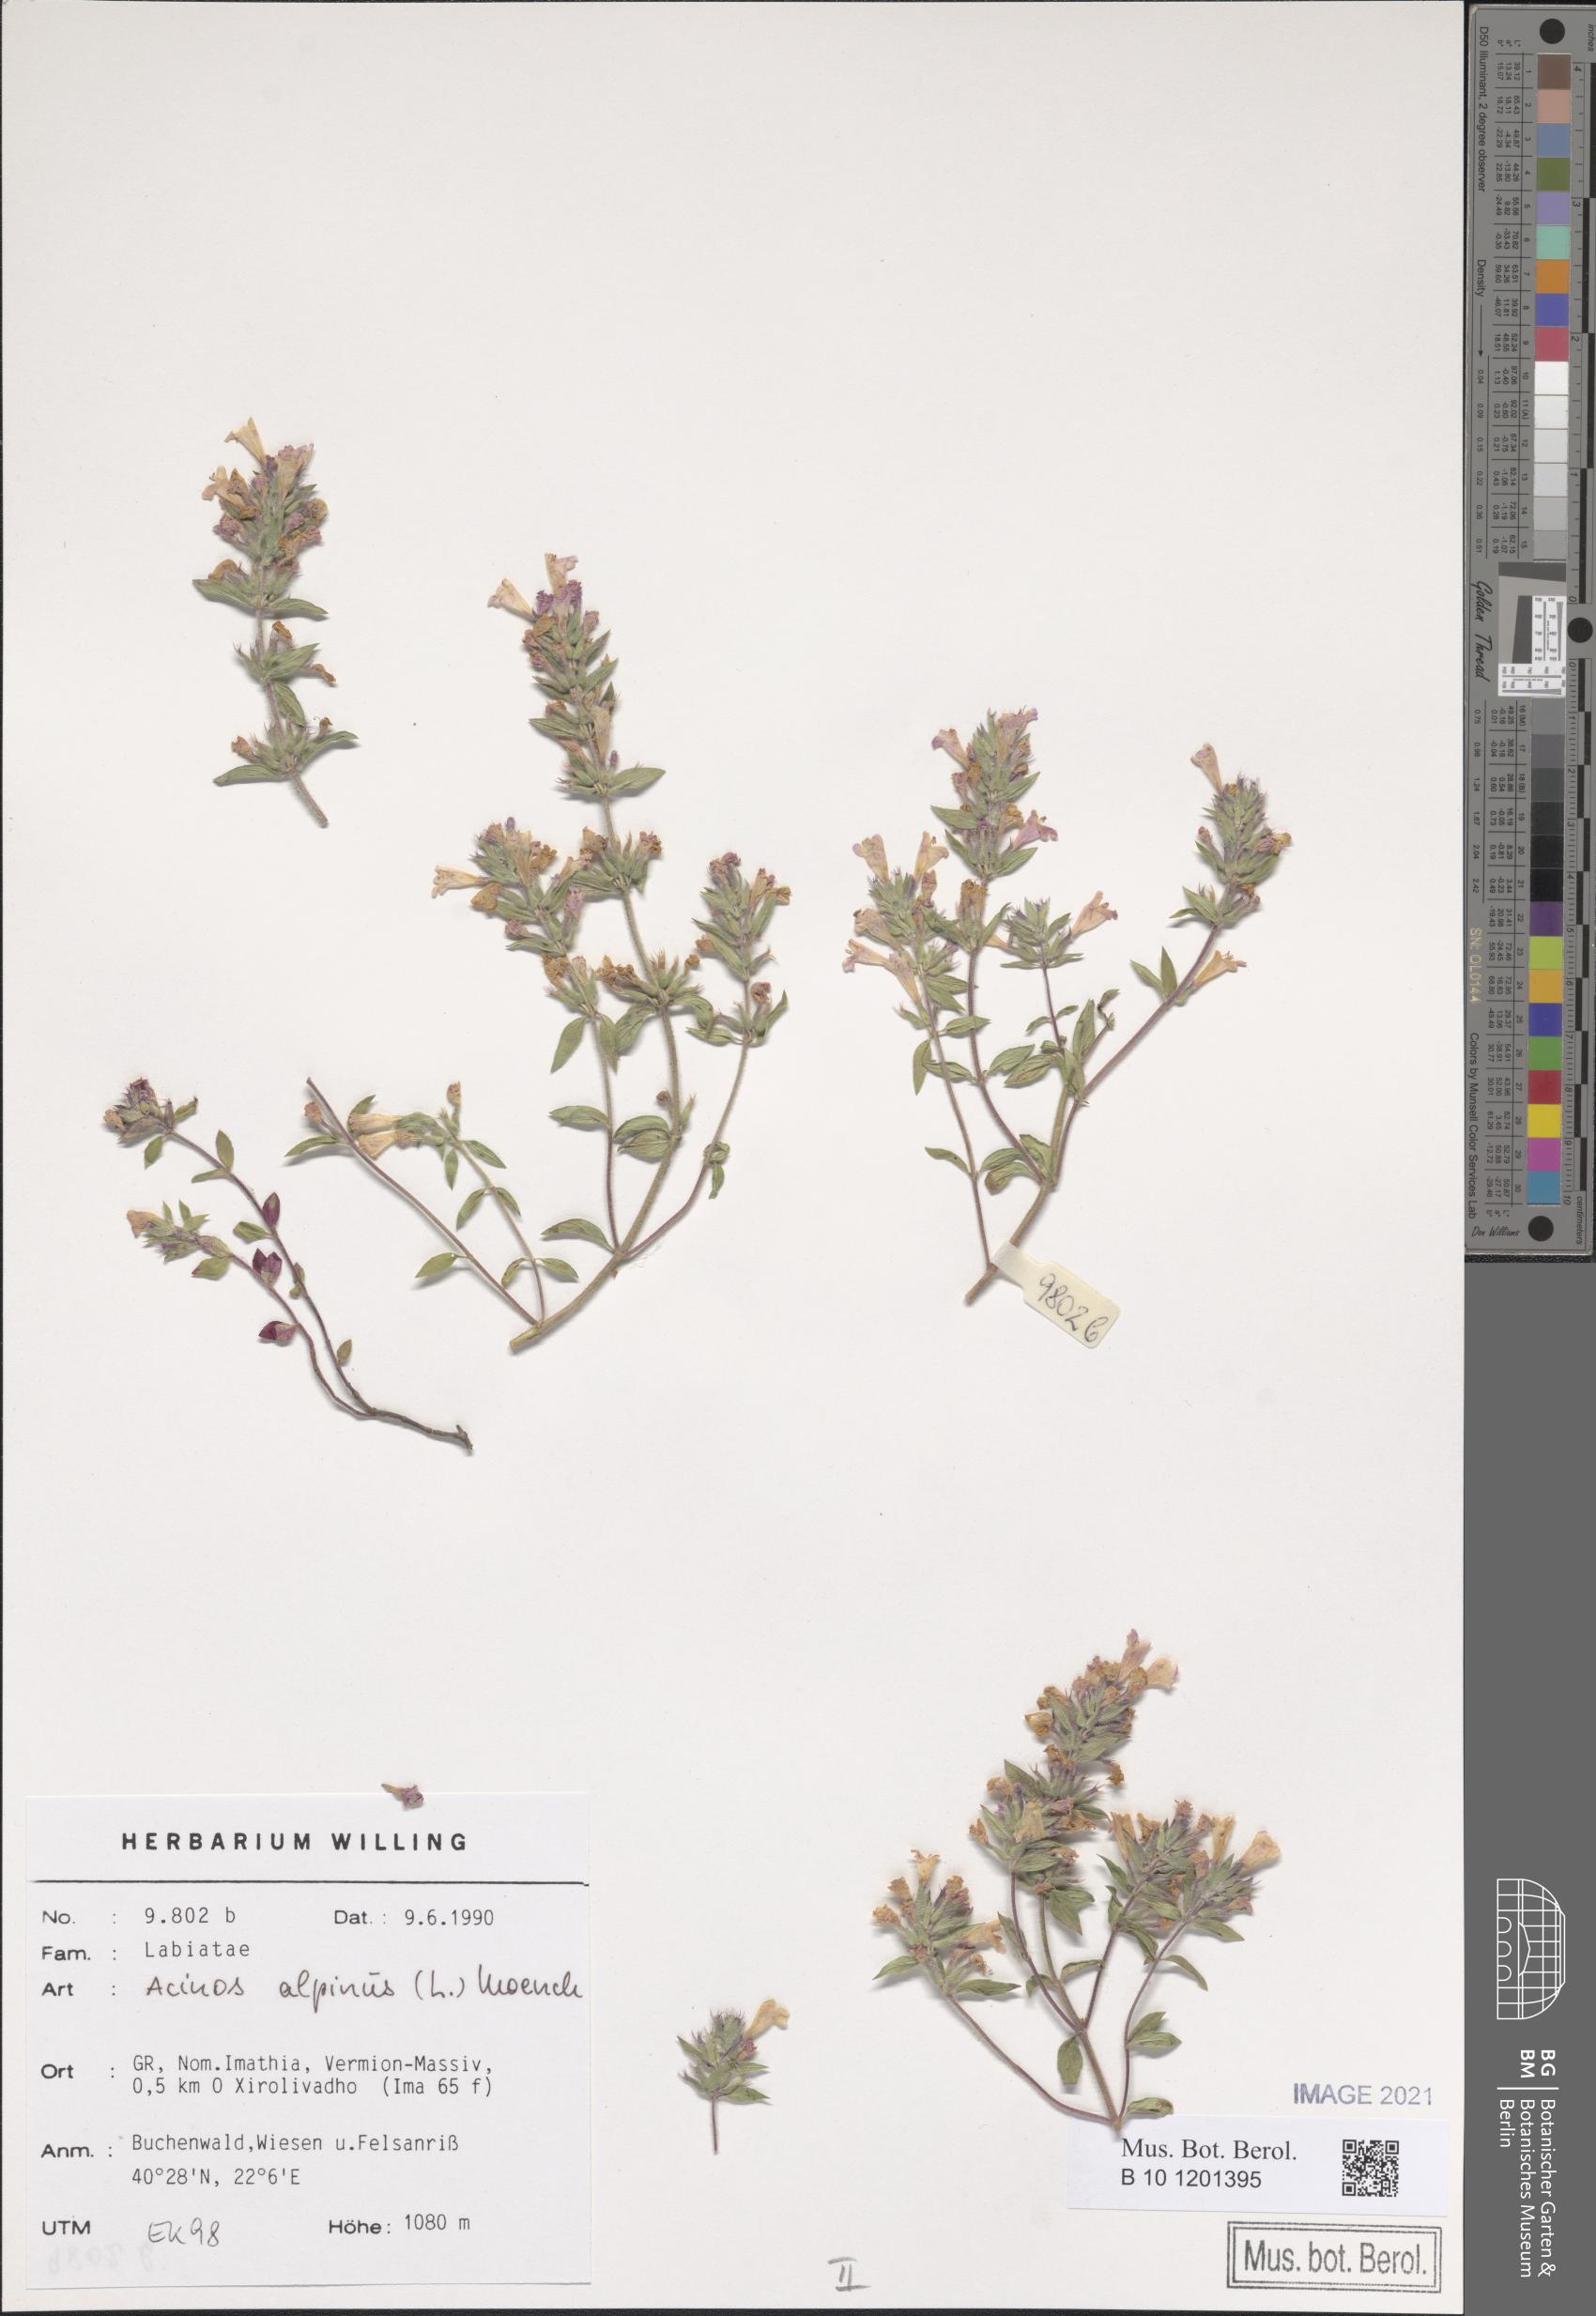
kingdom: Plantae
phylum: Tracheophyta
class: Magnoliopsida
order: Lamiales
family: Lamiaceae
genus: Clinopodium
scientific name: Clinopodium alpinum
